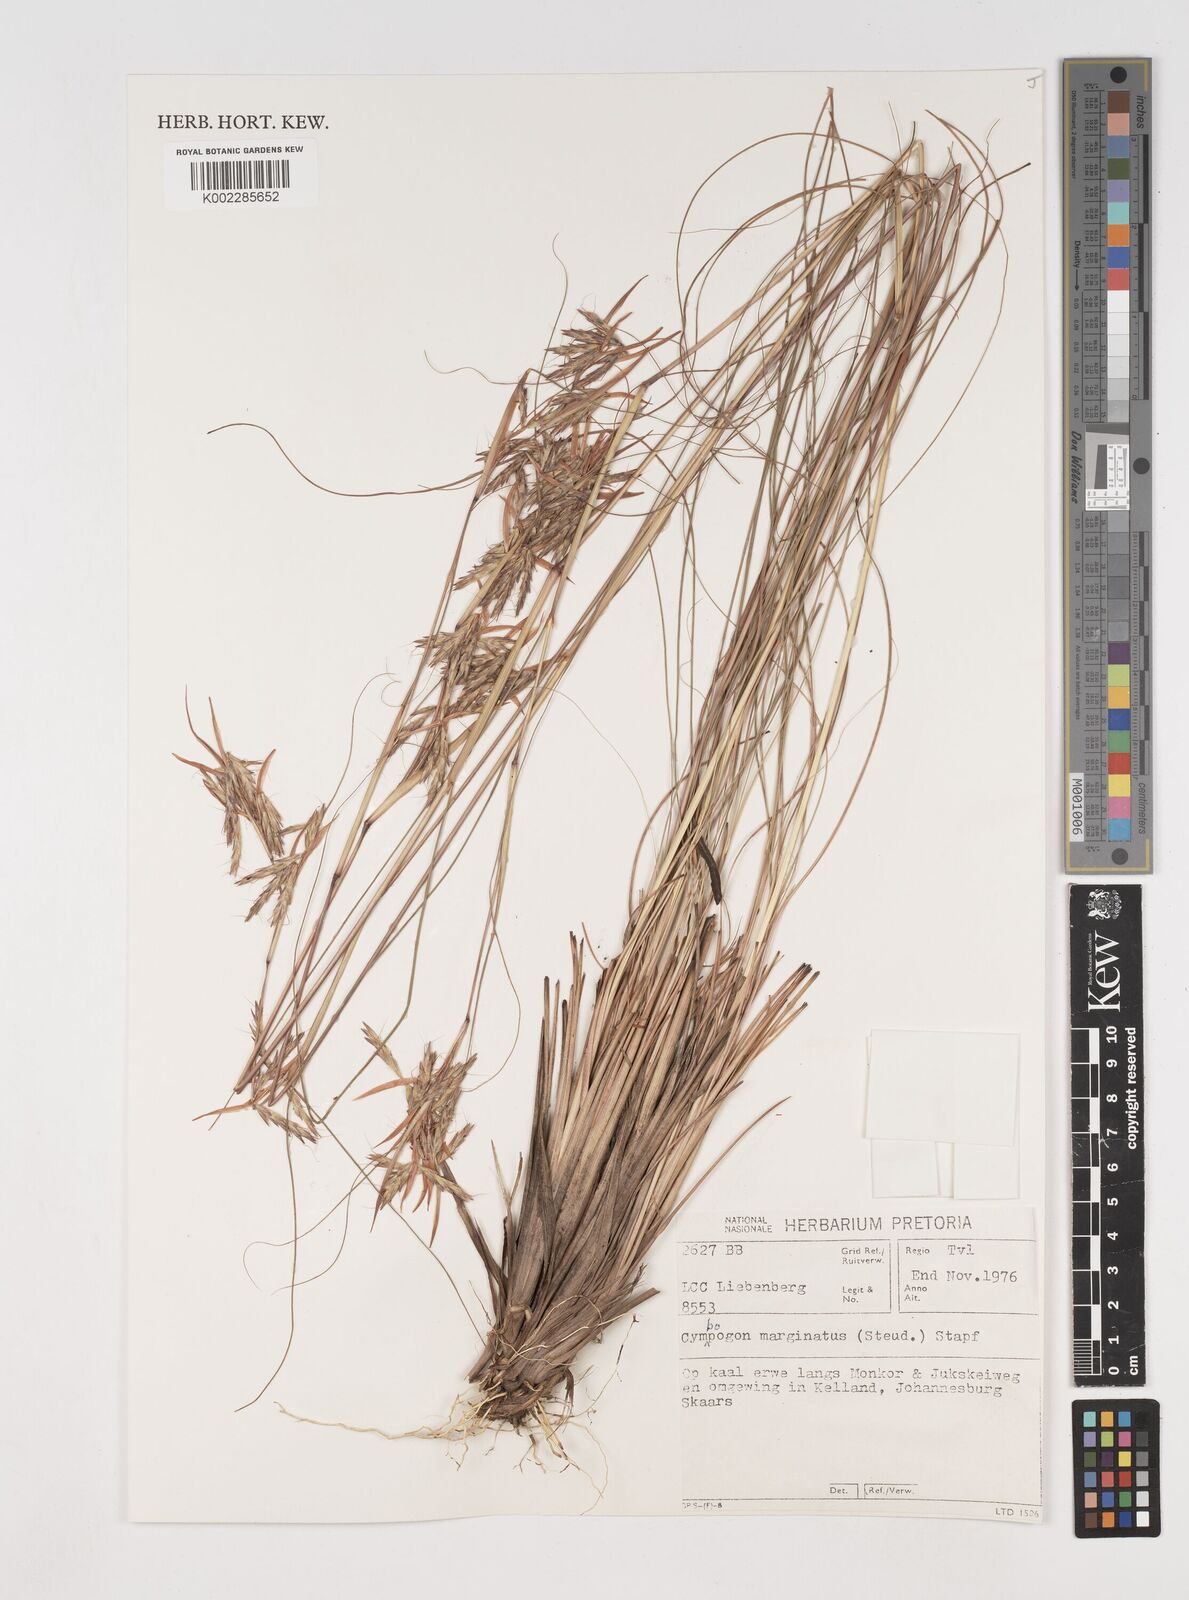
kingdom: Plantae
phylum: Tracheophyta
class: Liliopsida
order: Poales
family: Poaceae
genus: Cymbopogon
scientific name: Cymbopogon marginatus
